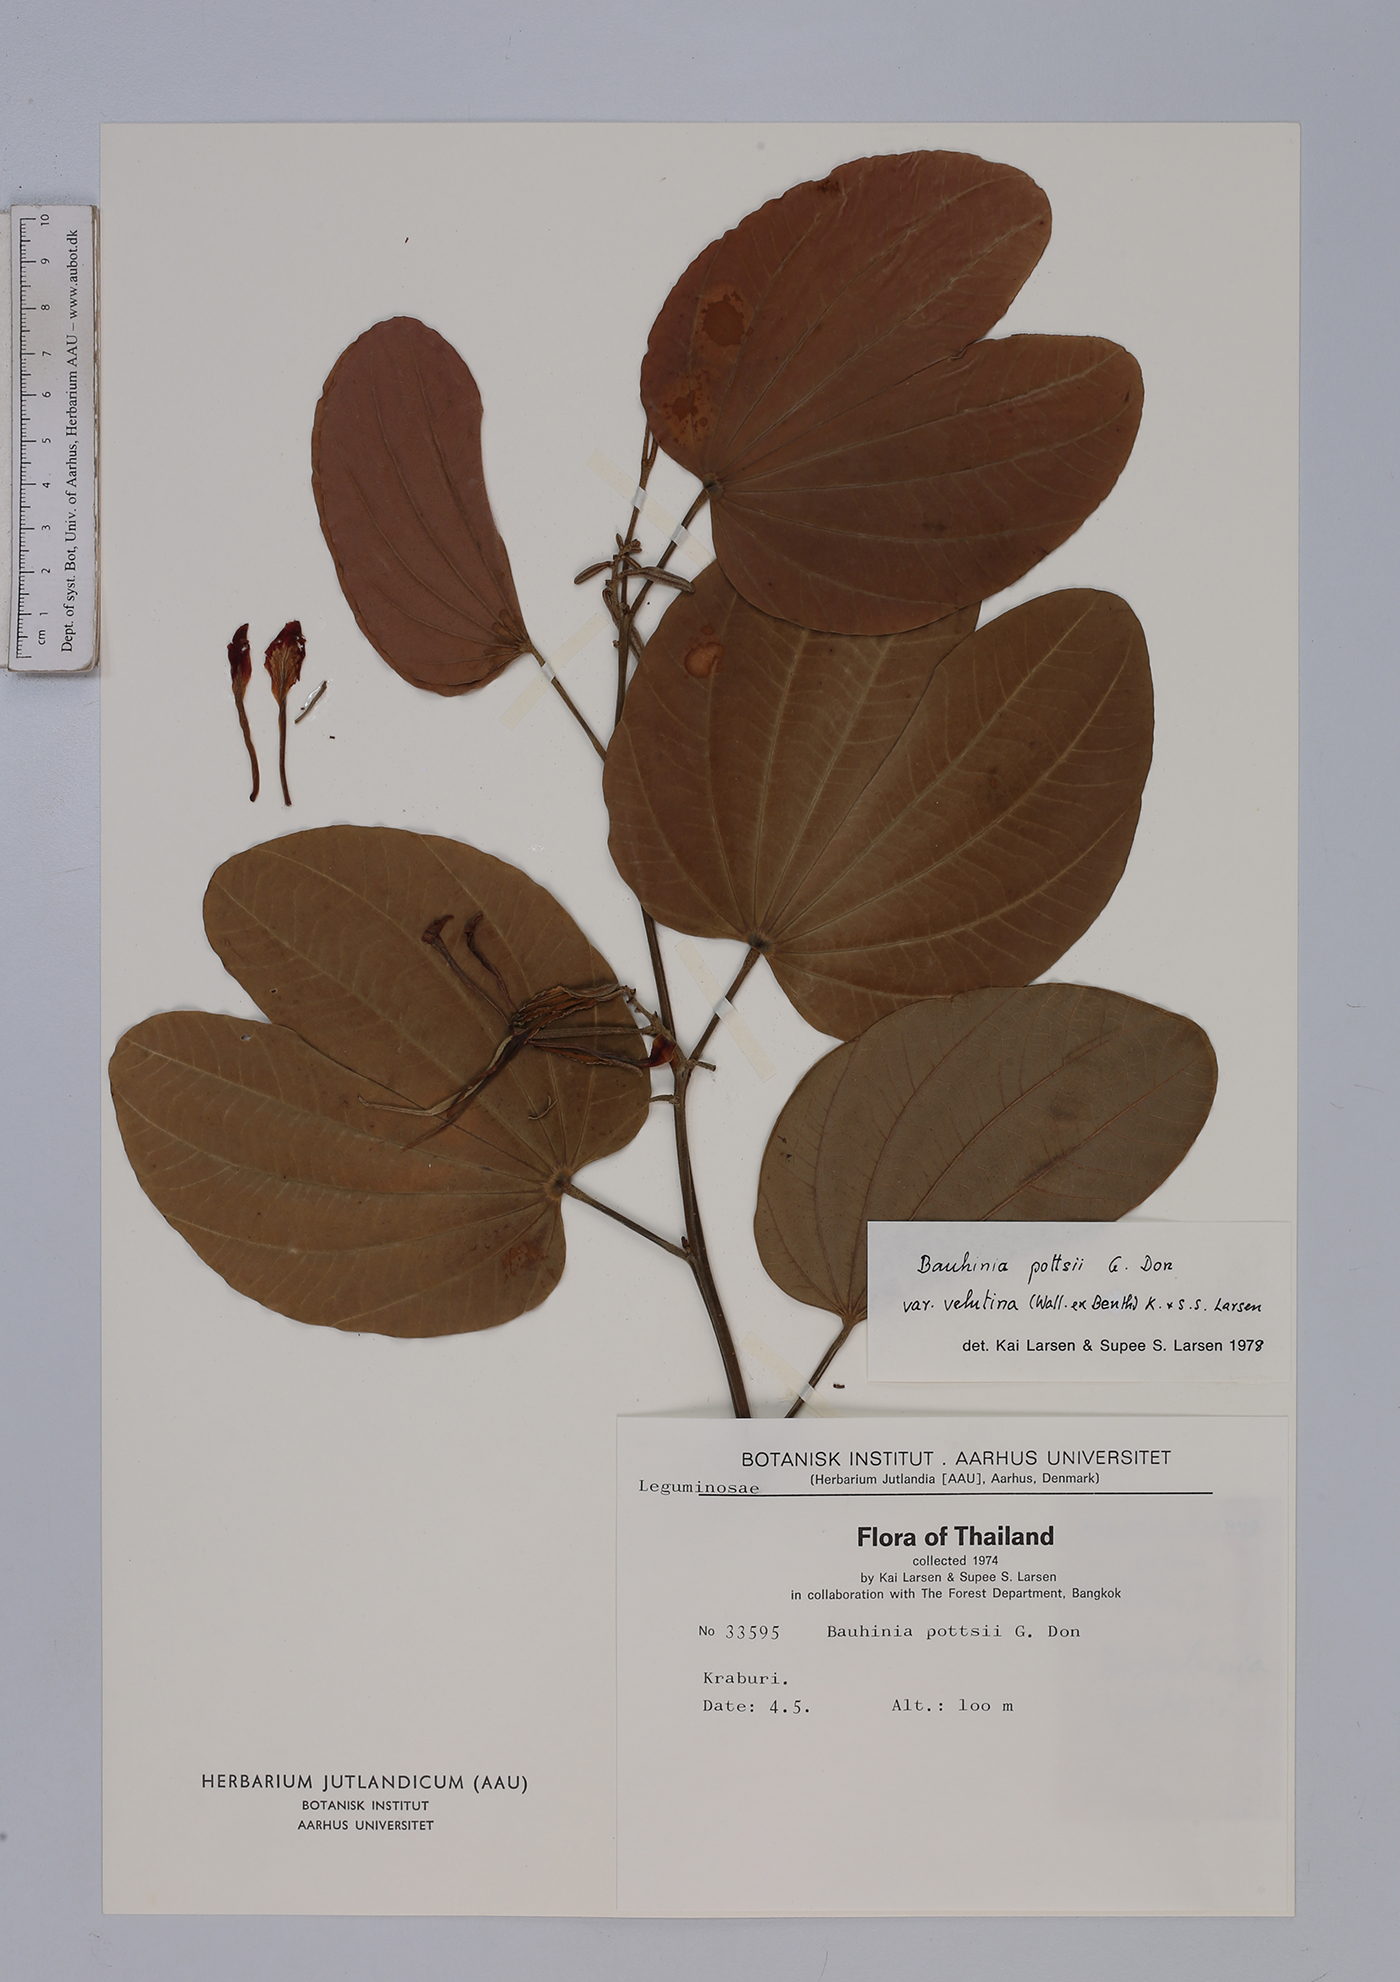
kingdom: Plantae
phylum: Tracheophyta
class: Magnoliopsida
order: Fabales
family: Fabaceae
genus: Bauhinia
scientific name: Bauhinia pottsii
